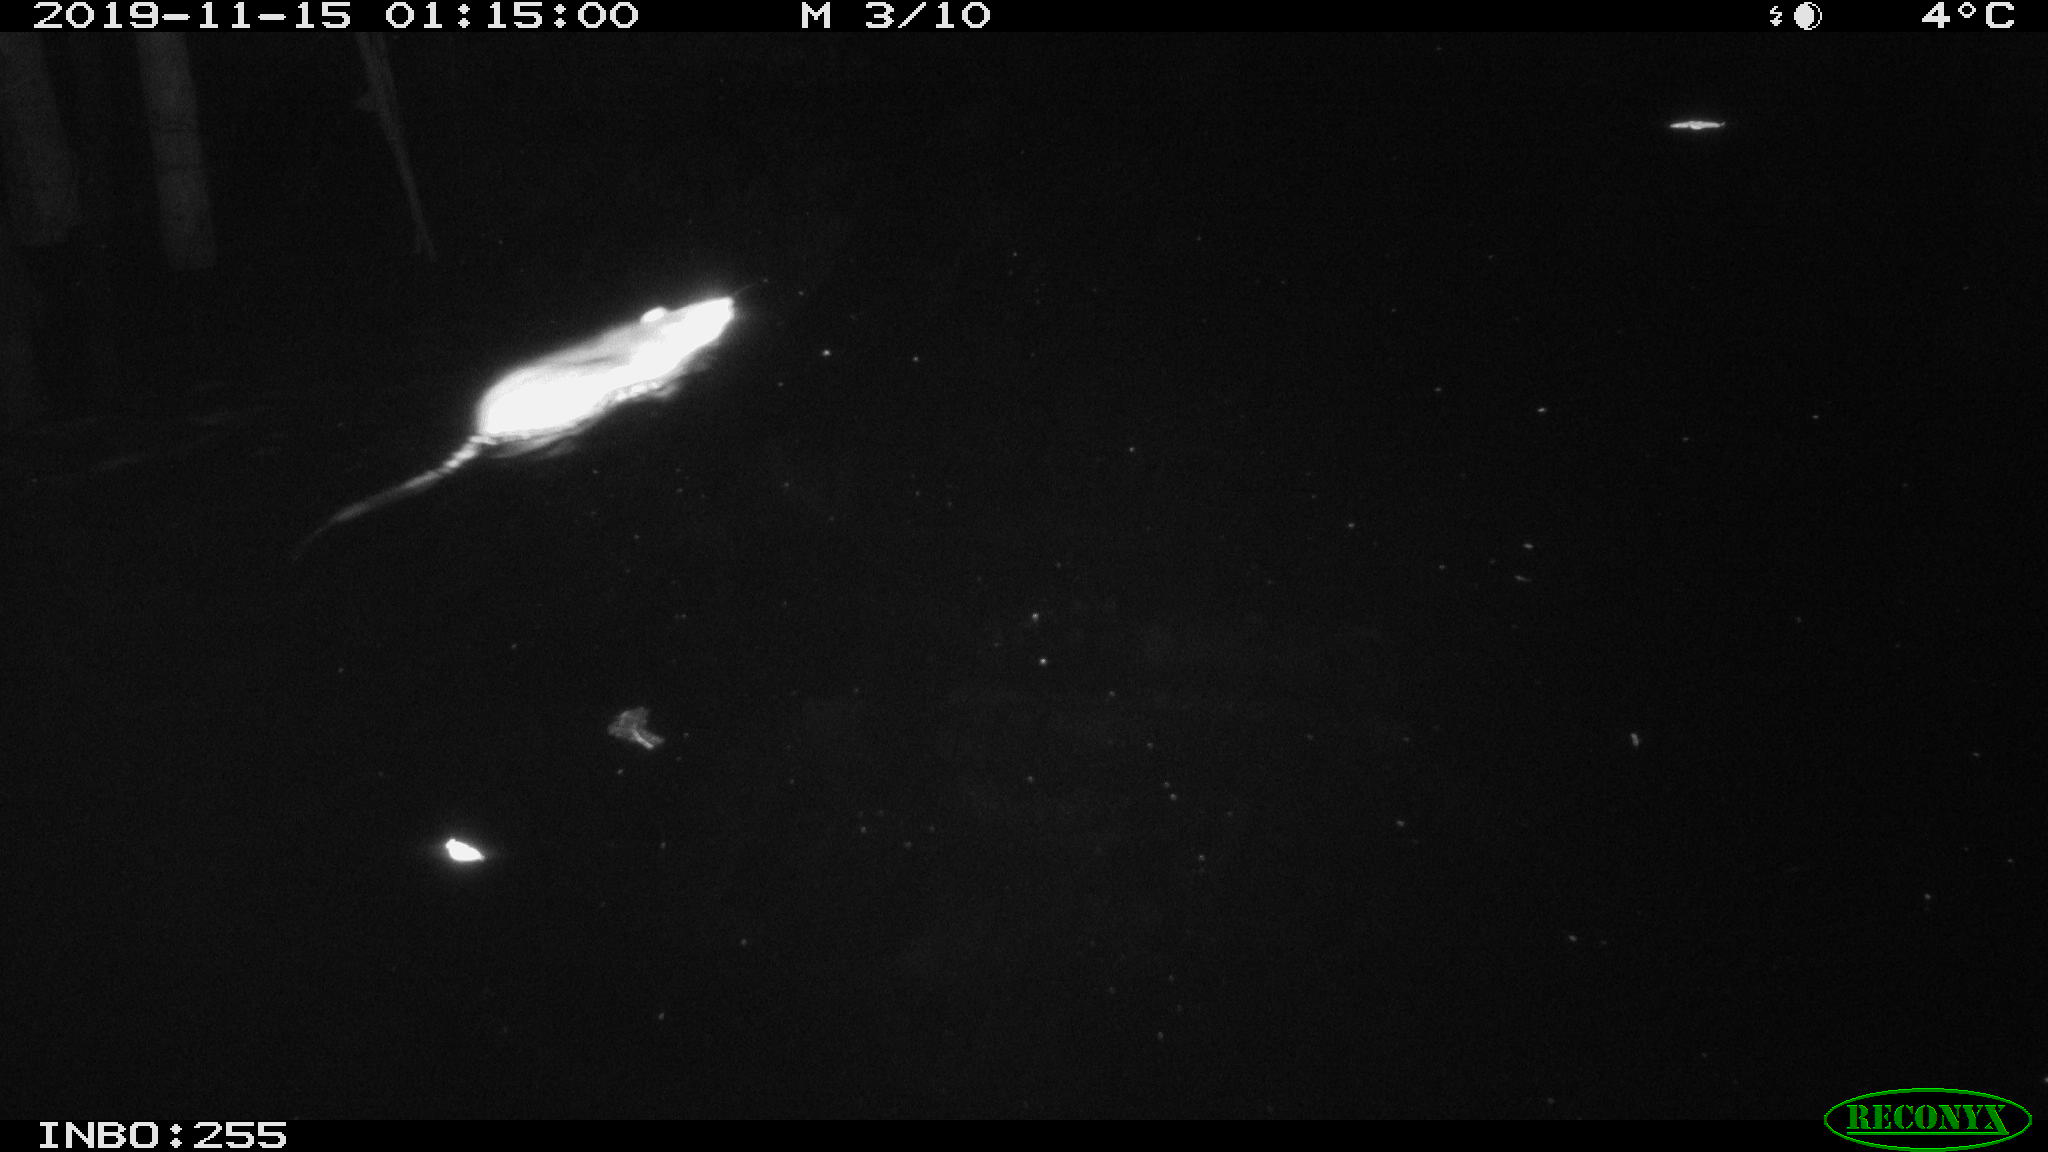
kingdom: Animalia
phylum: Chordata
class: Mammalia
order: Rodentia
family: Muridae
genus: Rattus
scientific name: Rattus norvegicus
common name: Brown rat
